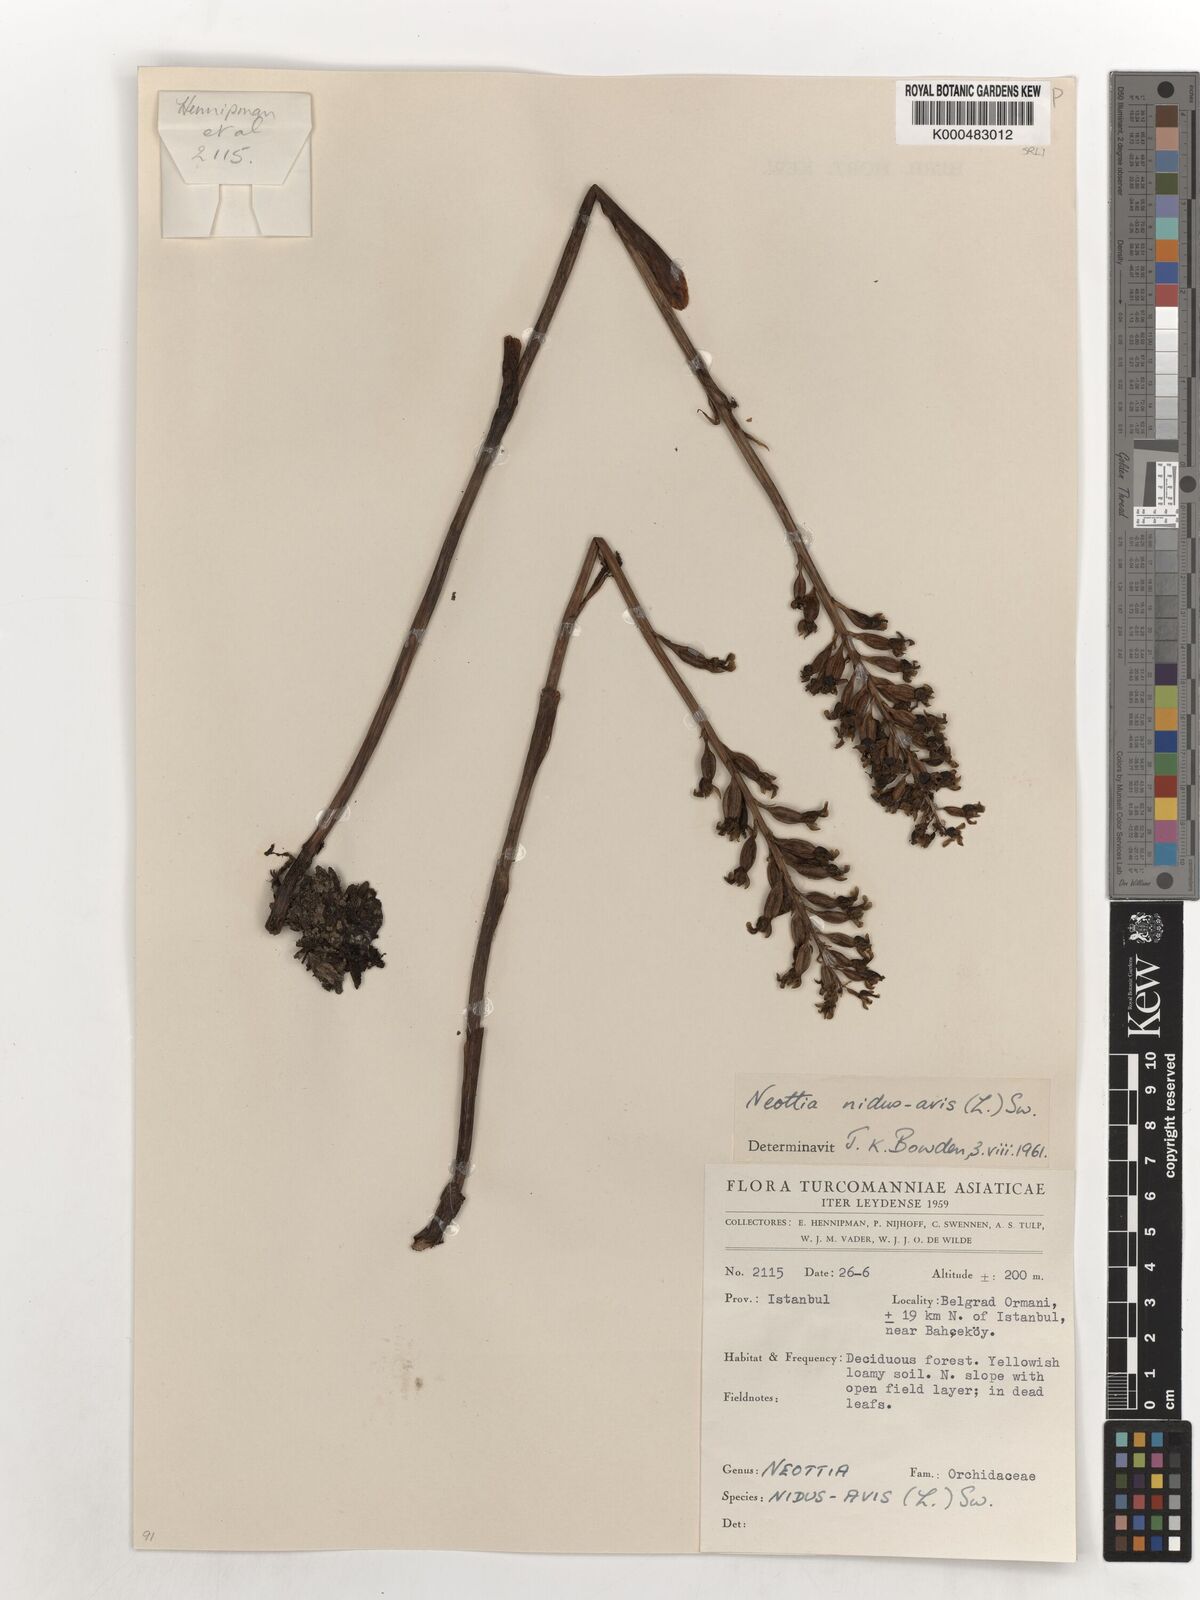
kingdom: Plantae
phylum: Tracheophyta
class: Liliopsida
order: Asparagales
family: Orchidaceae
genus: Neottia
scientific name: Neottia nidus-avis
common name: Bird's-nest orchid
